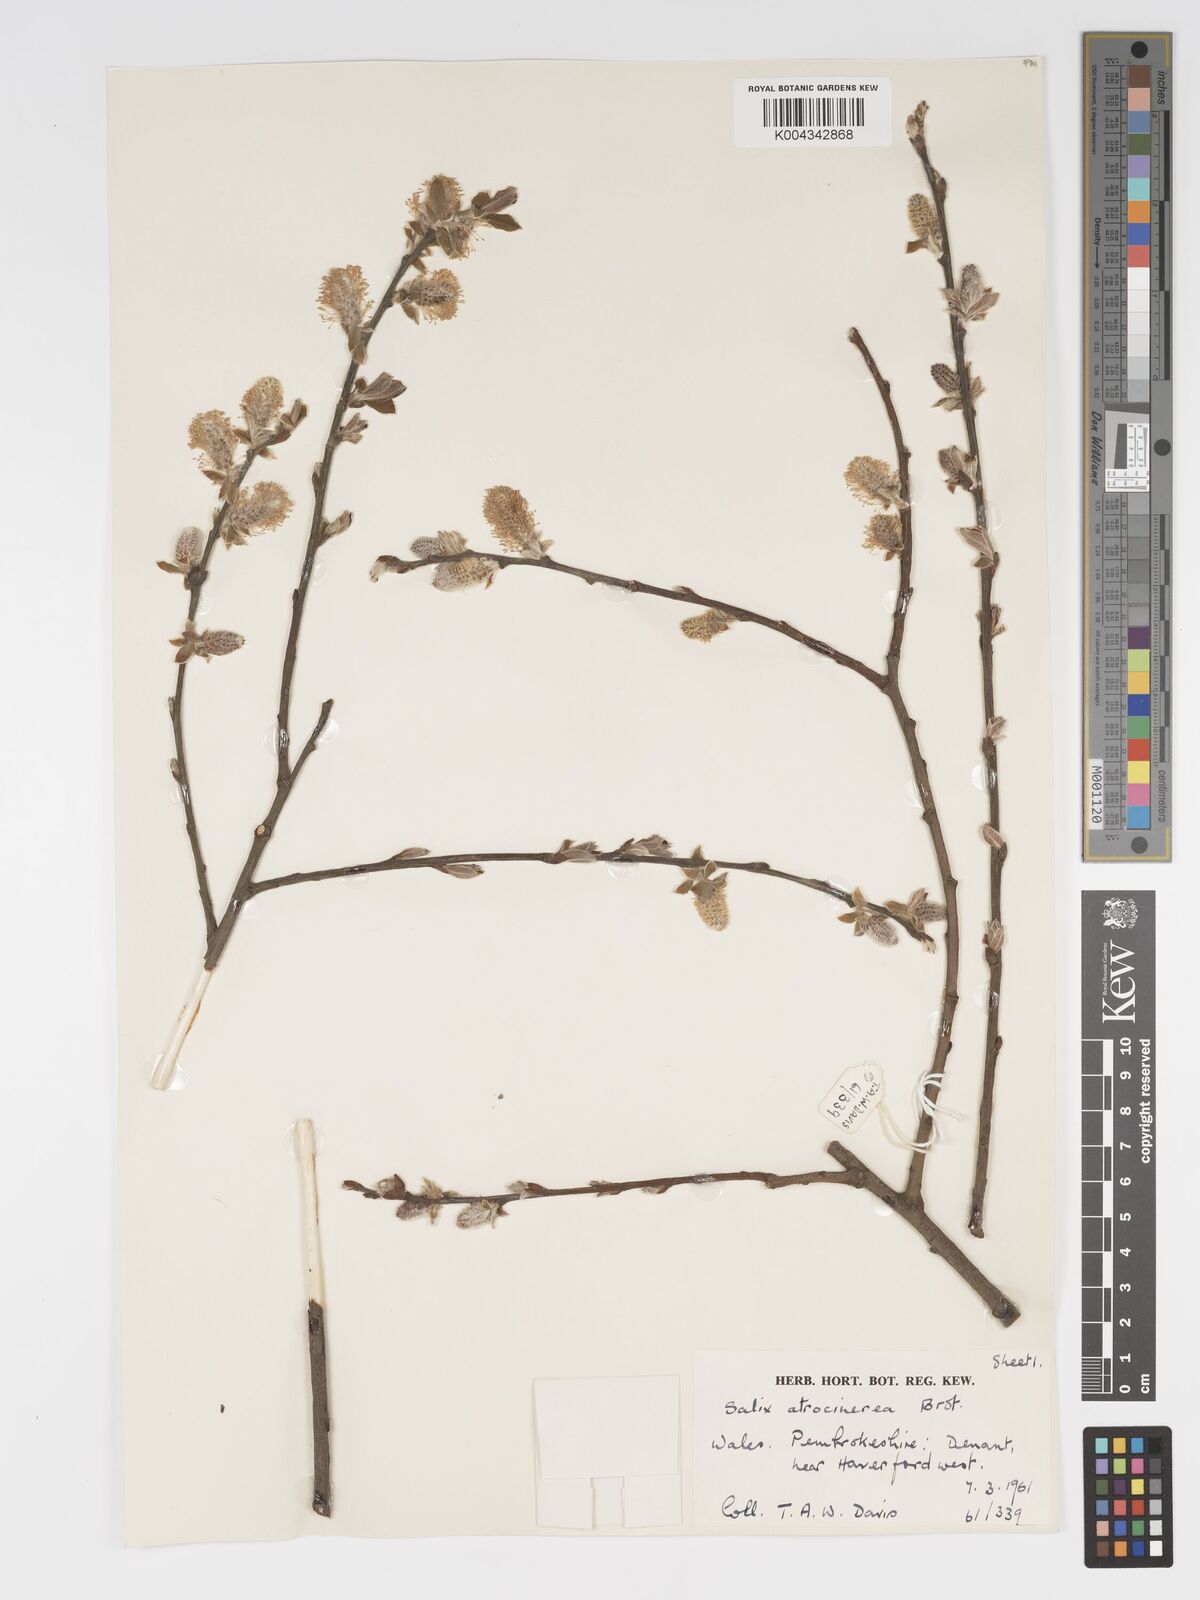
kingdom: Plantae
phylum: Tracheophyta
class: Magnoliopsida
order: Malpighiales
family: Salicaceae
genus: Salix
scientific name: Salix atrocinerea
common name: Rusty willow
